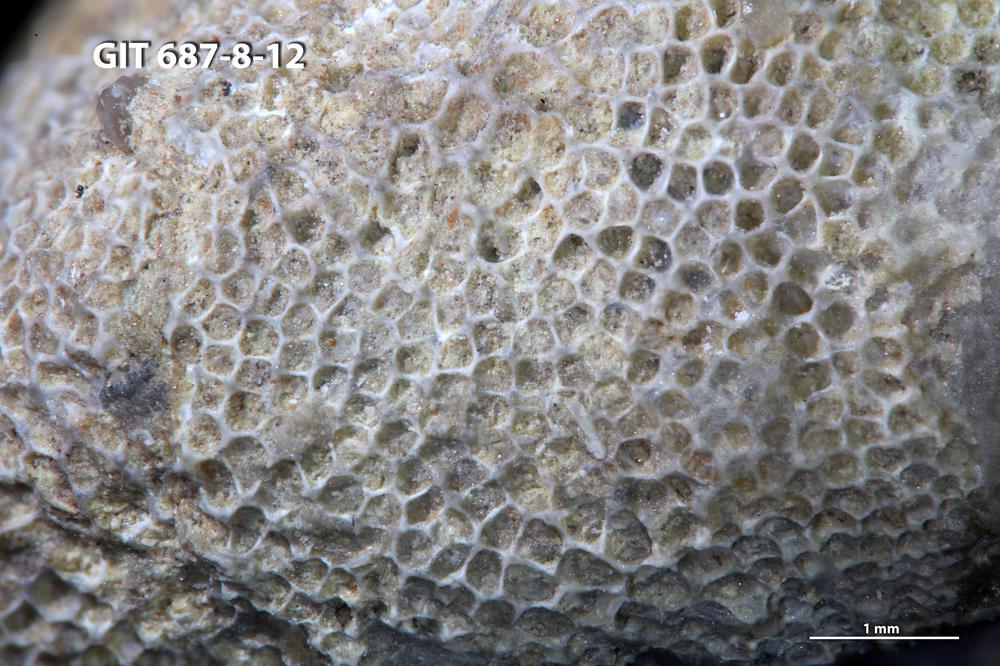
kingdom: Animalia
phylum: Bryozoa
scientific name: Bryozoa
